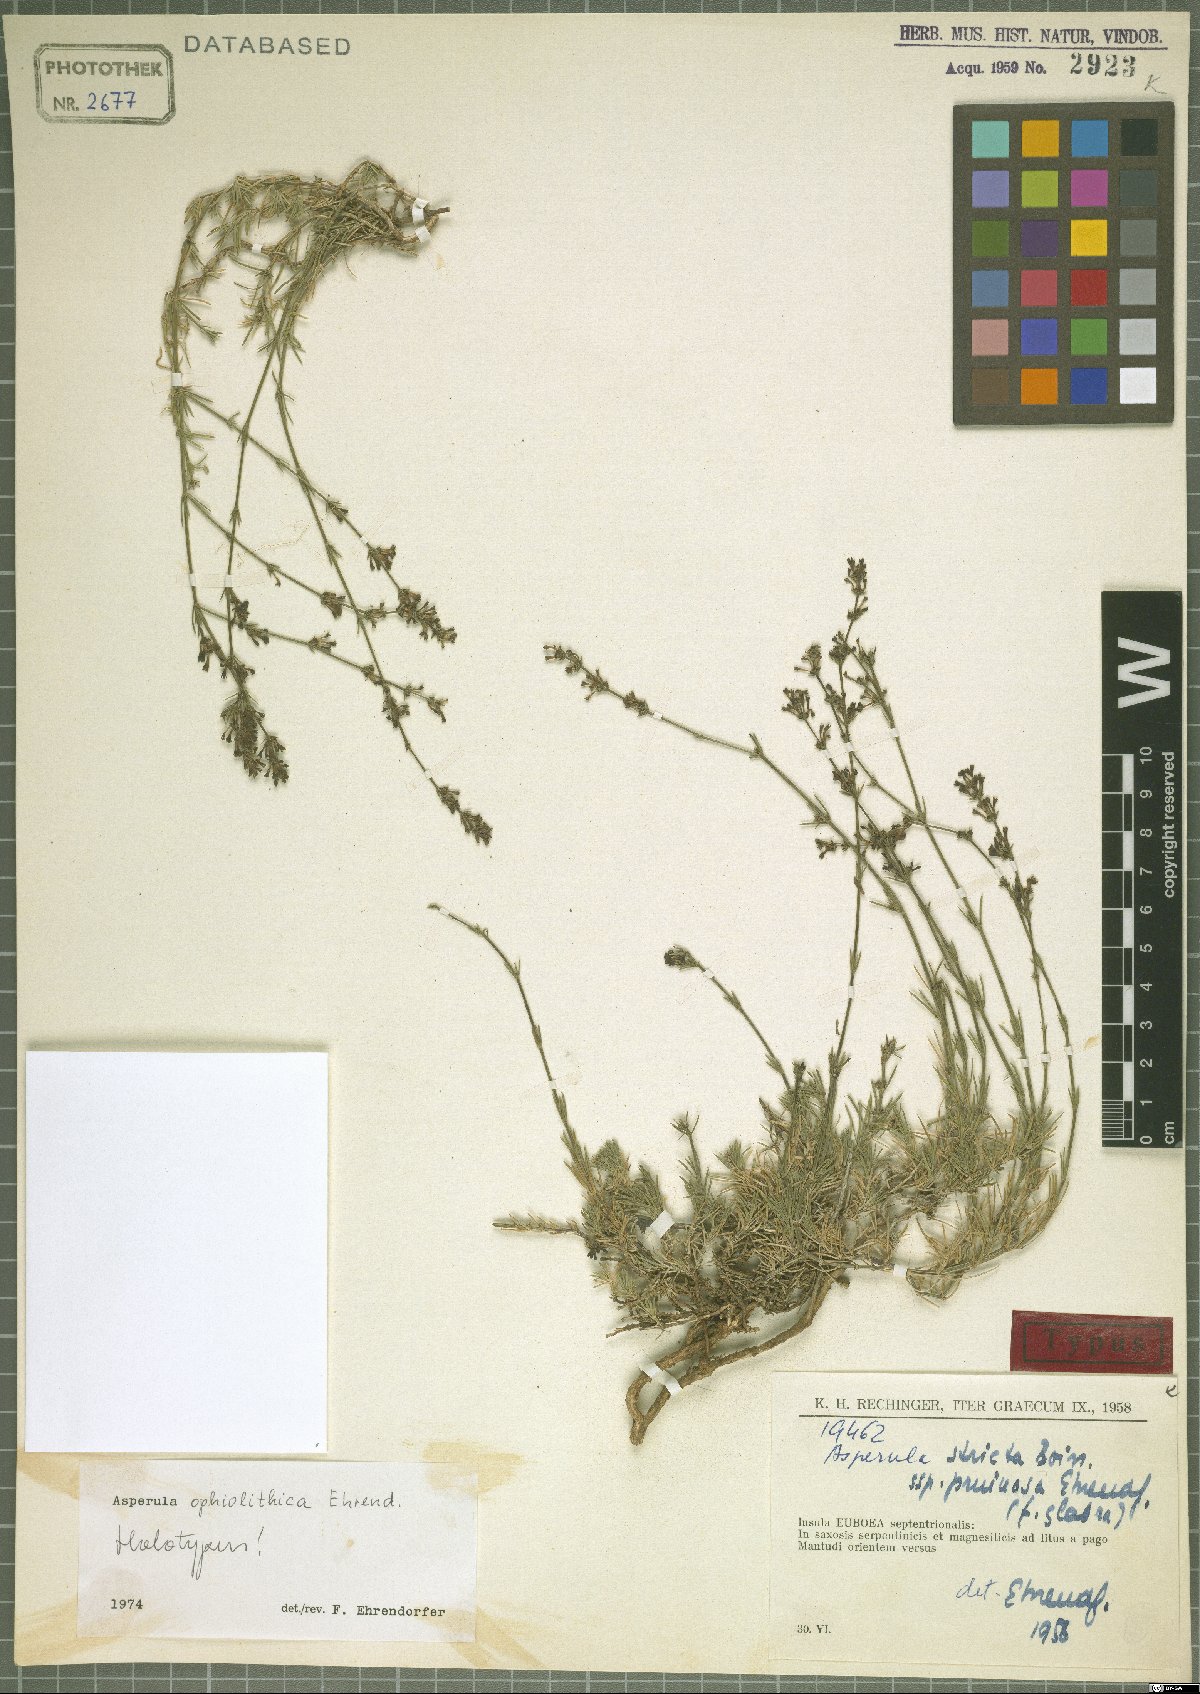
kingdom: Plantae
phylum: Tracheophyta
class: Magnoliopsida
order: Gentianales
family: Rubiaceae
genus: Cynanchica
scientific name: Cynanchica ophiolitica
